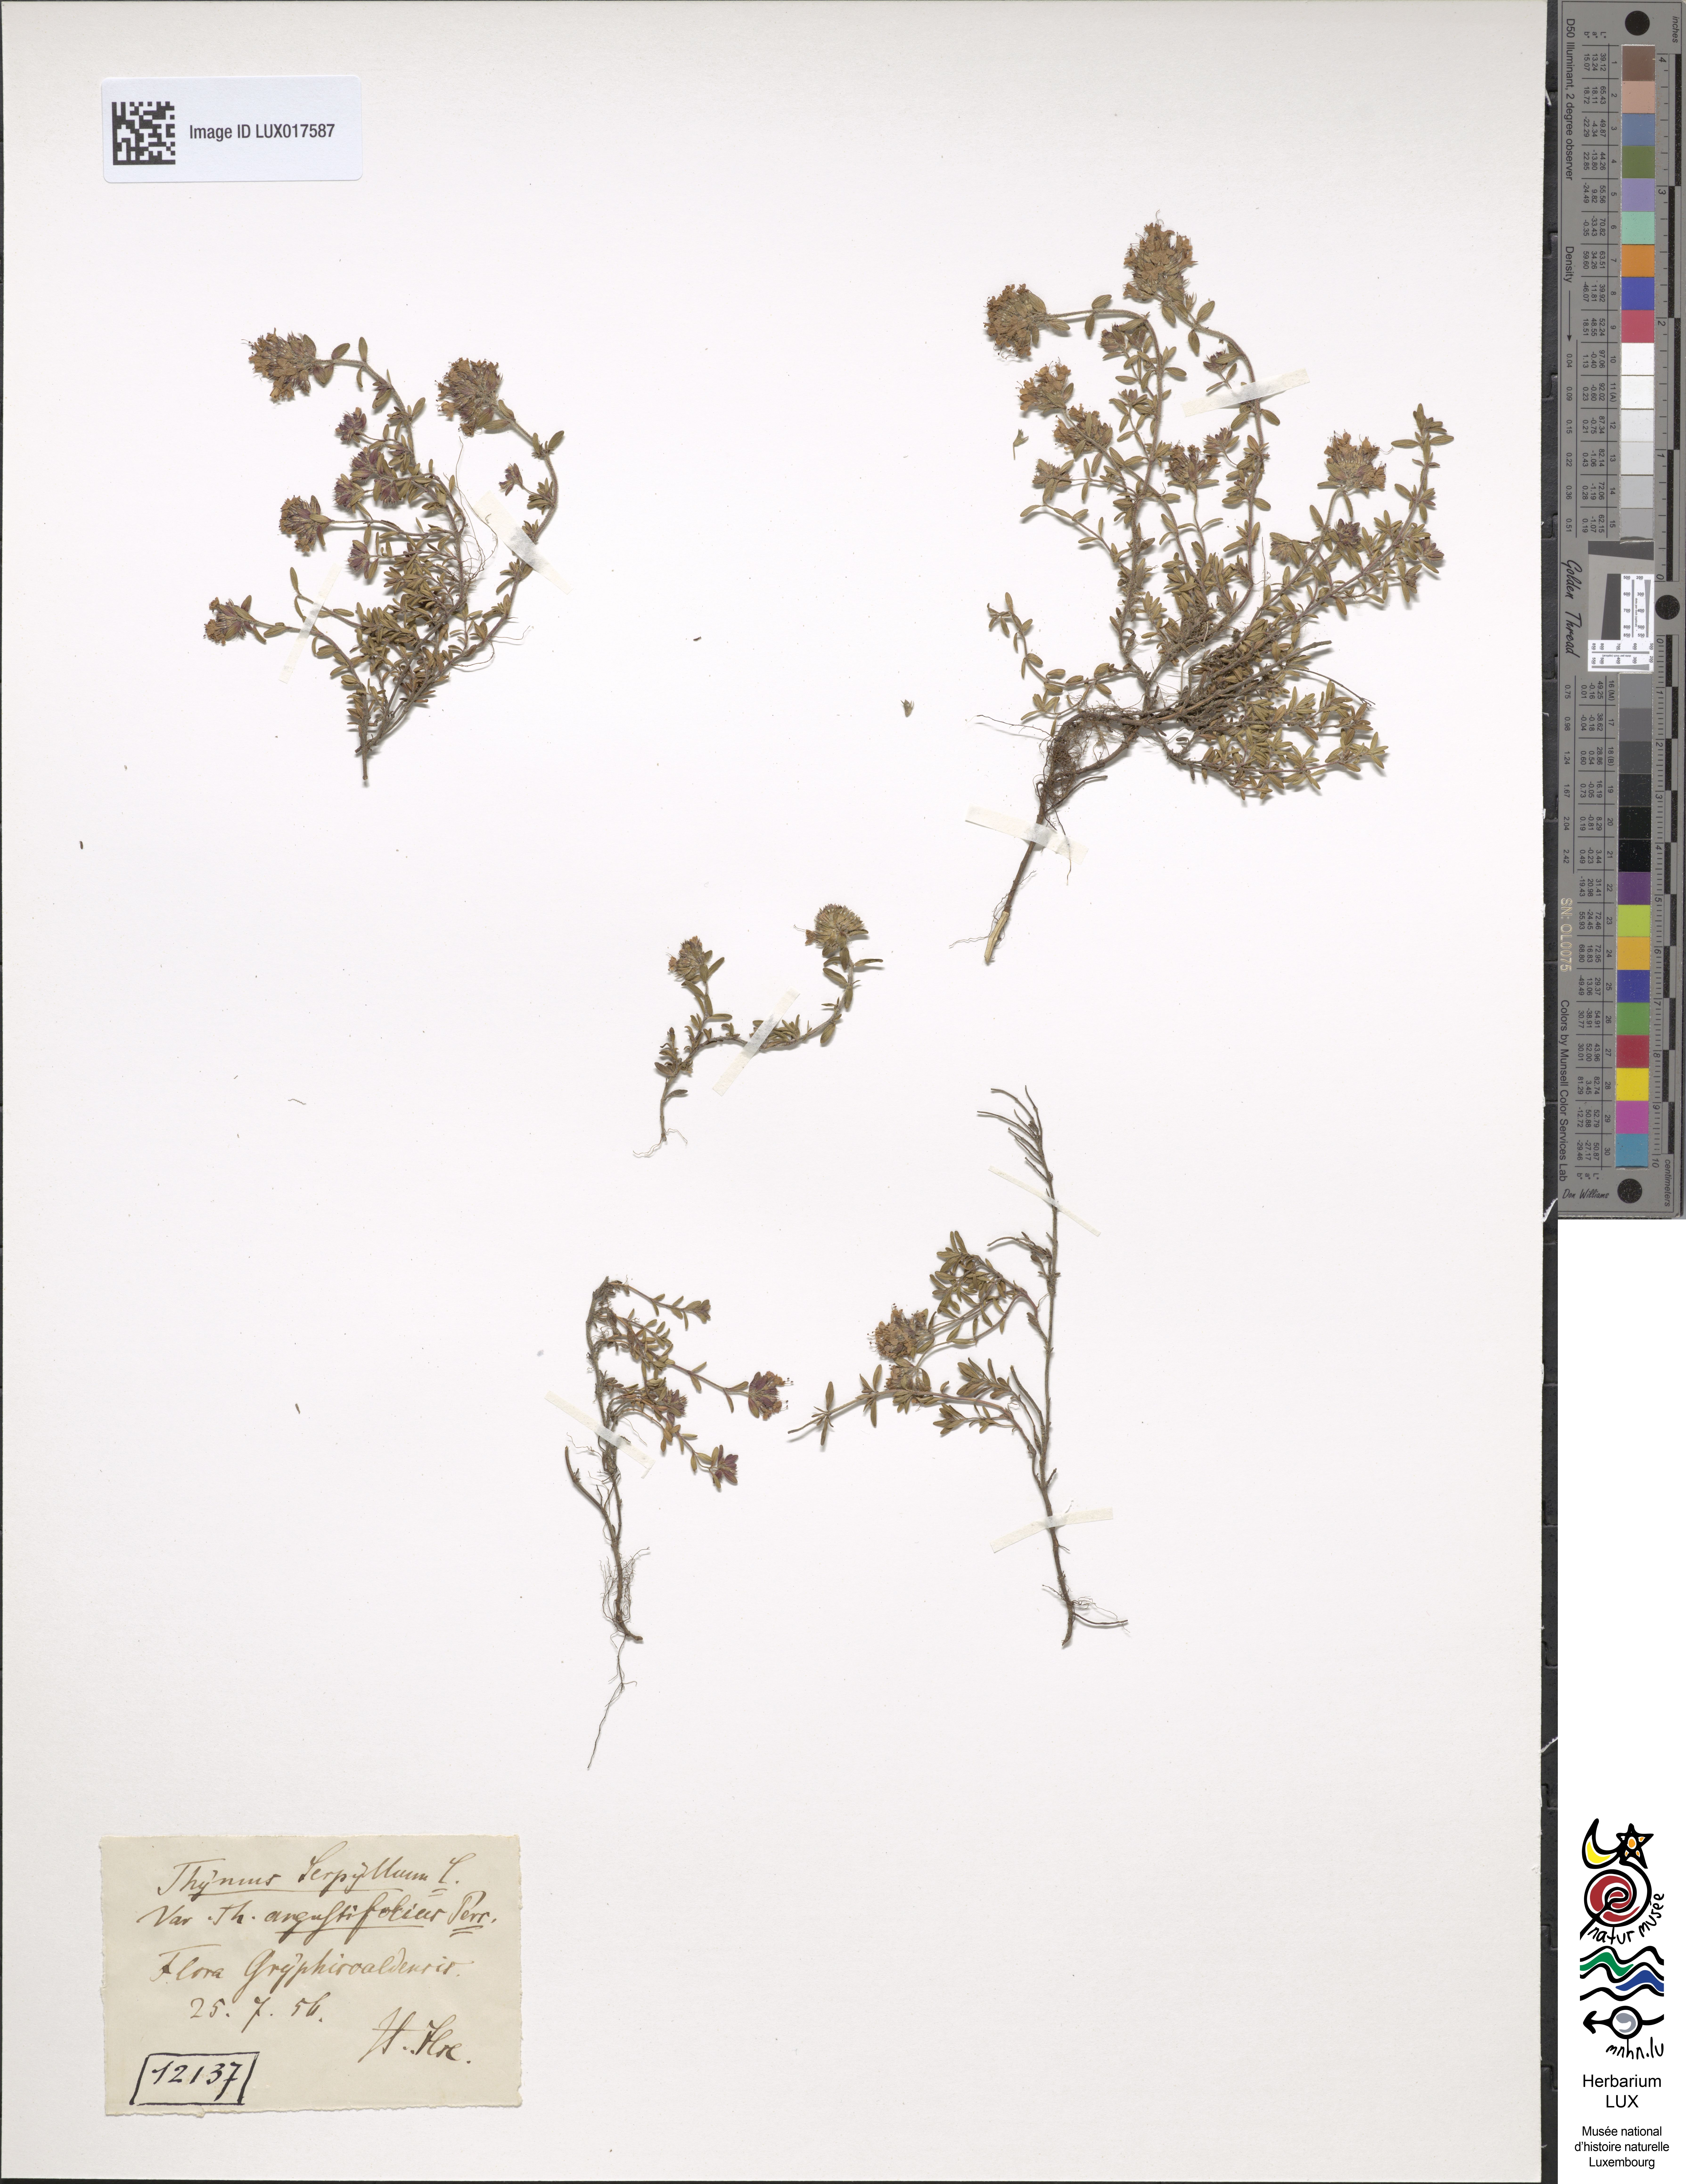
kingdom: Plantae
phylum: Tracheophyta
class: Magnoliopsida
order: Lamiales
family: Lamiaceae
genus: Thymus
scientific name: Thymus serpyllum
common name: Breckland thyme
